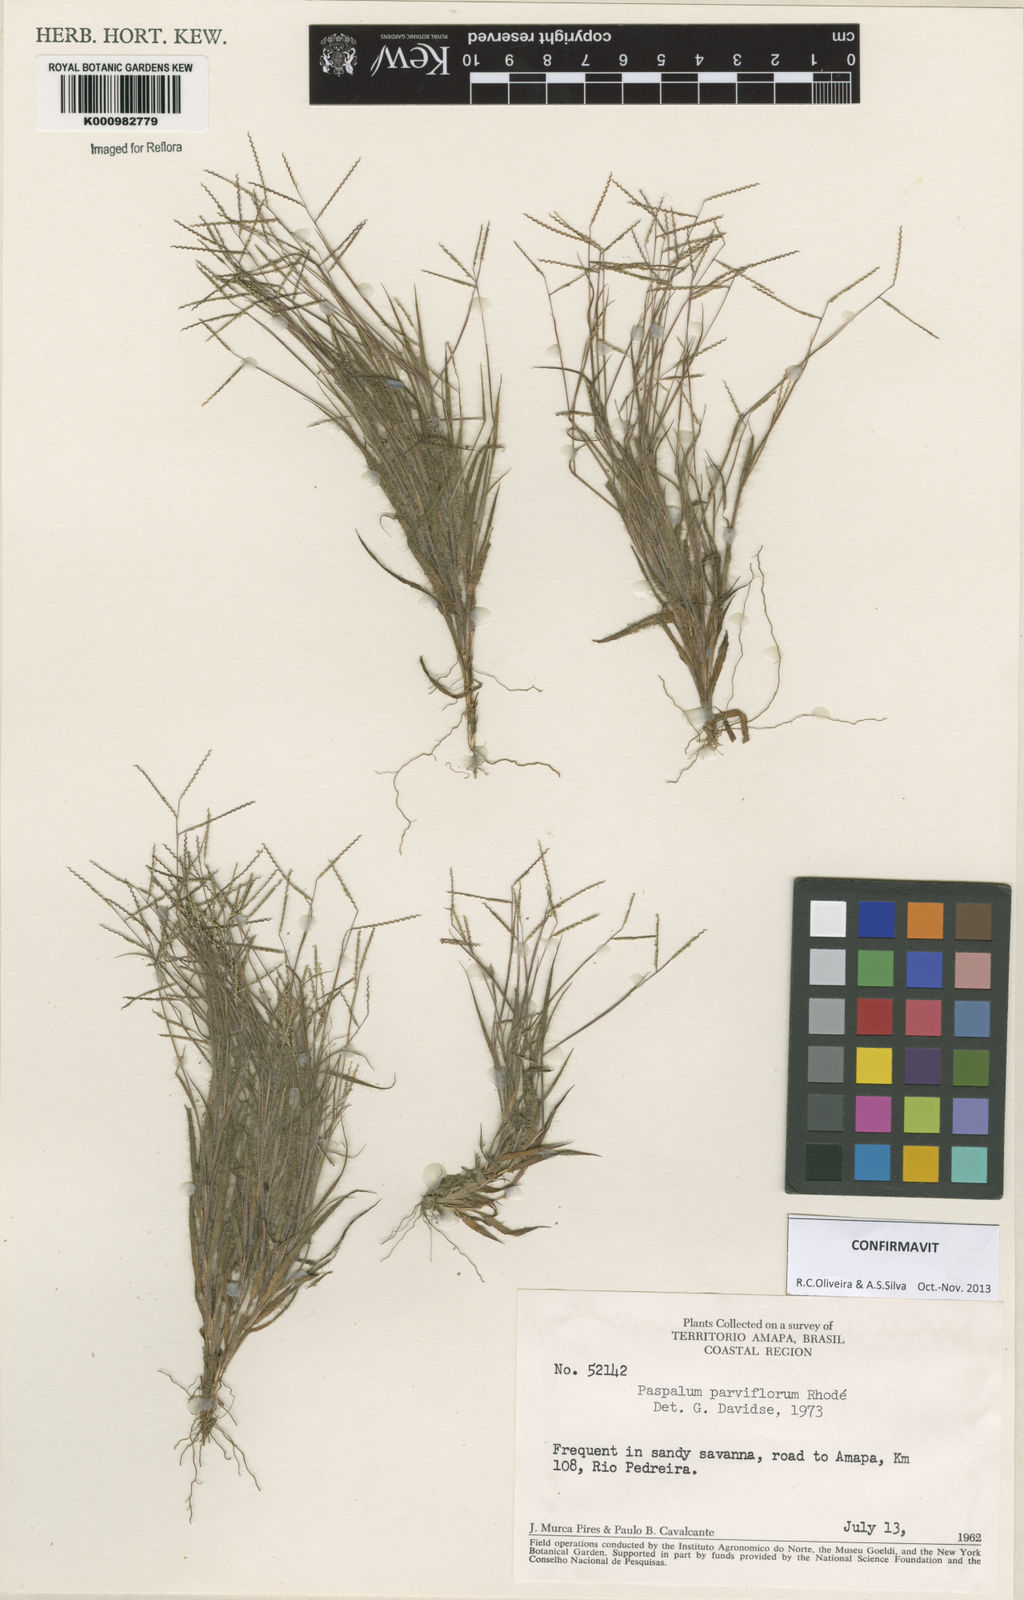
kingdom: Plantae
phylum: Tracheophyta
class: Liliopsida
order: Poales
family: Poaceae
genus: Paspalum
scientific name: Paspalum
